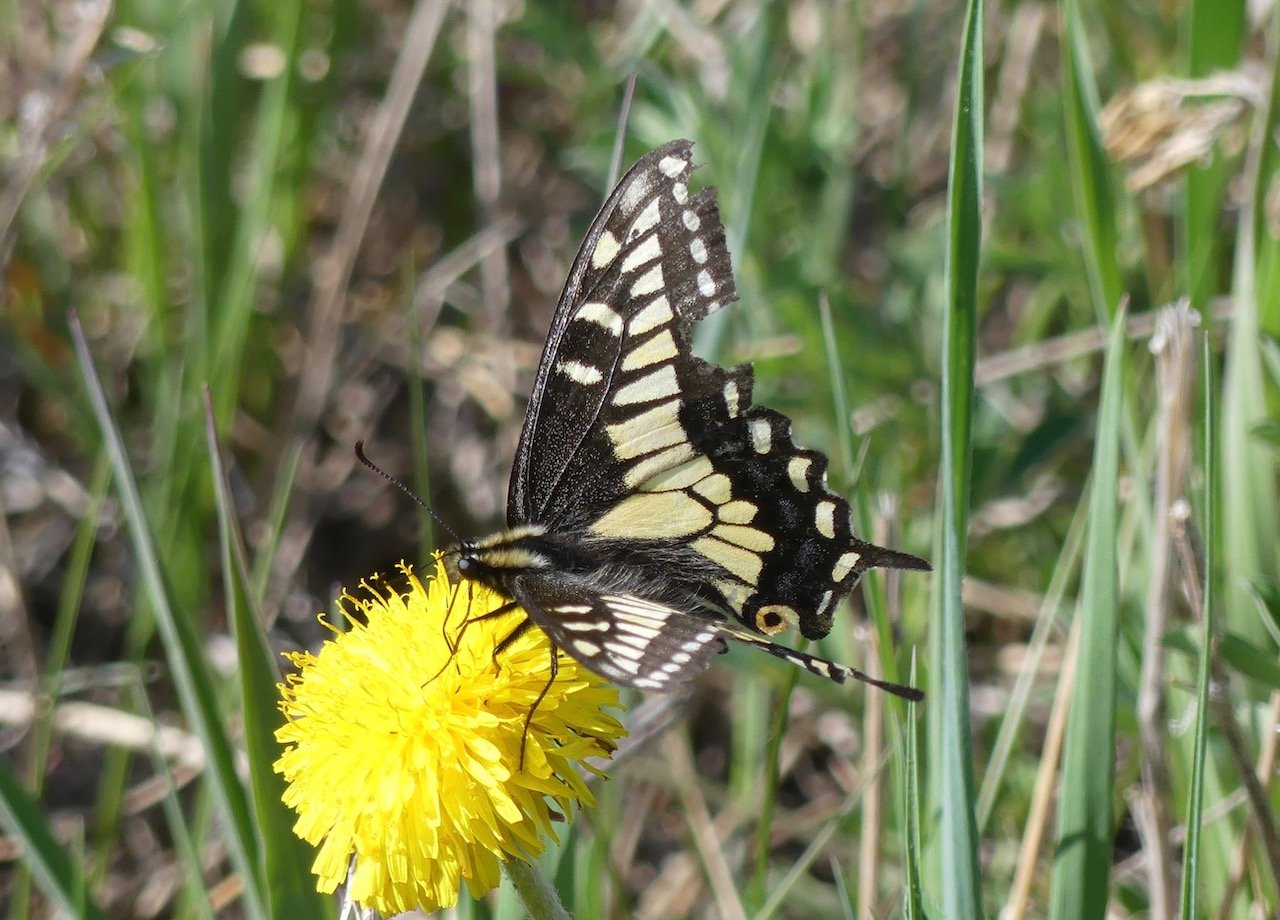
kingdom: Animalia
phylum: Arthropoda
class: Insecta
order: Lepidoptera
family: Papilionidae
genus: Papilio
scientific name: Papilio zelicaon
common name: Anise Swallowtail
